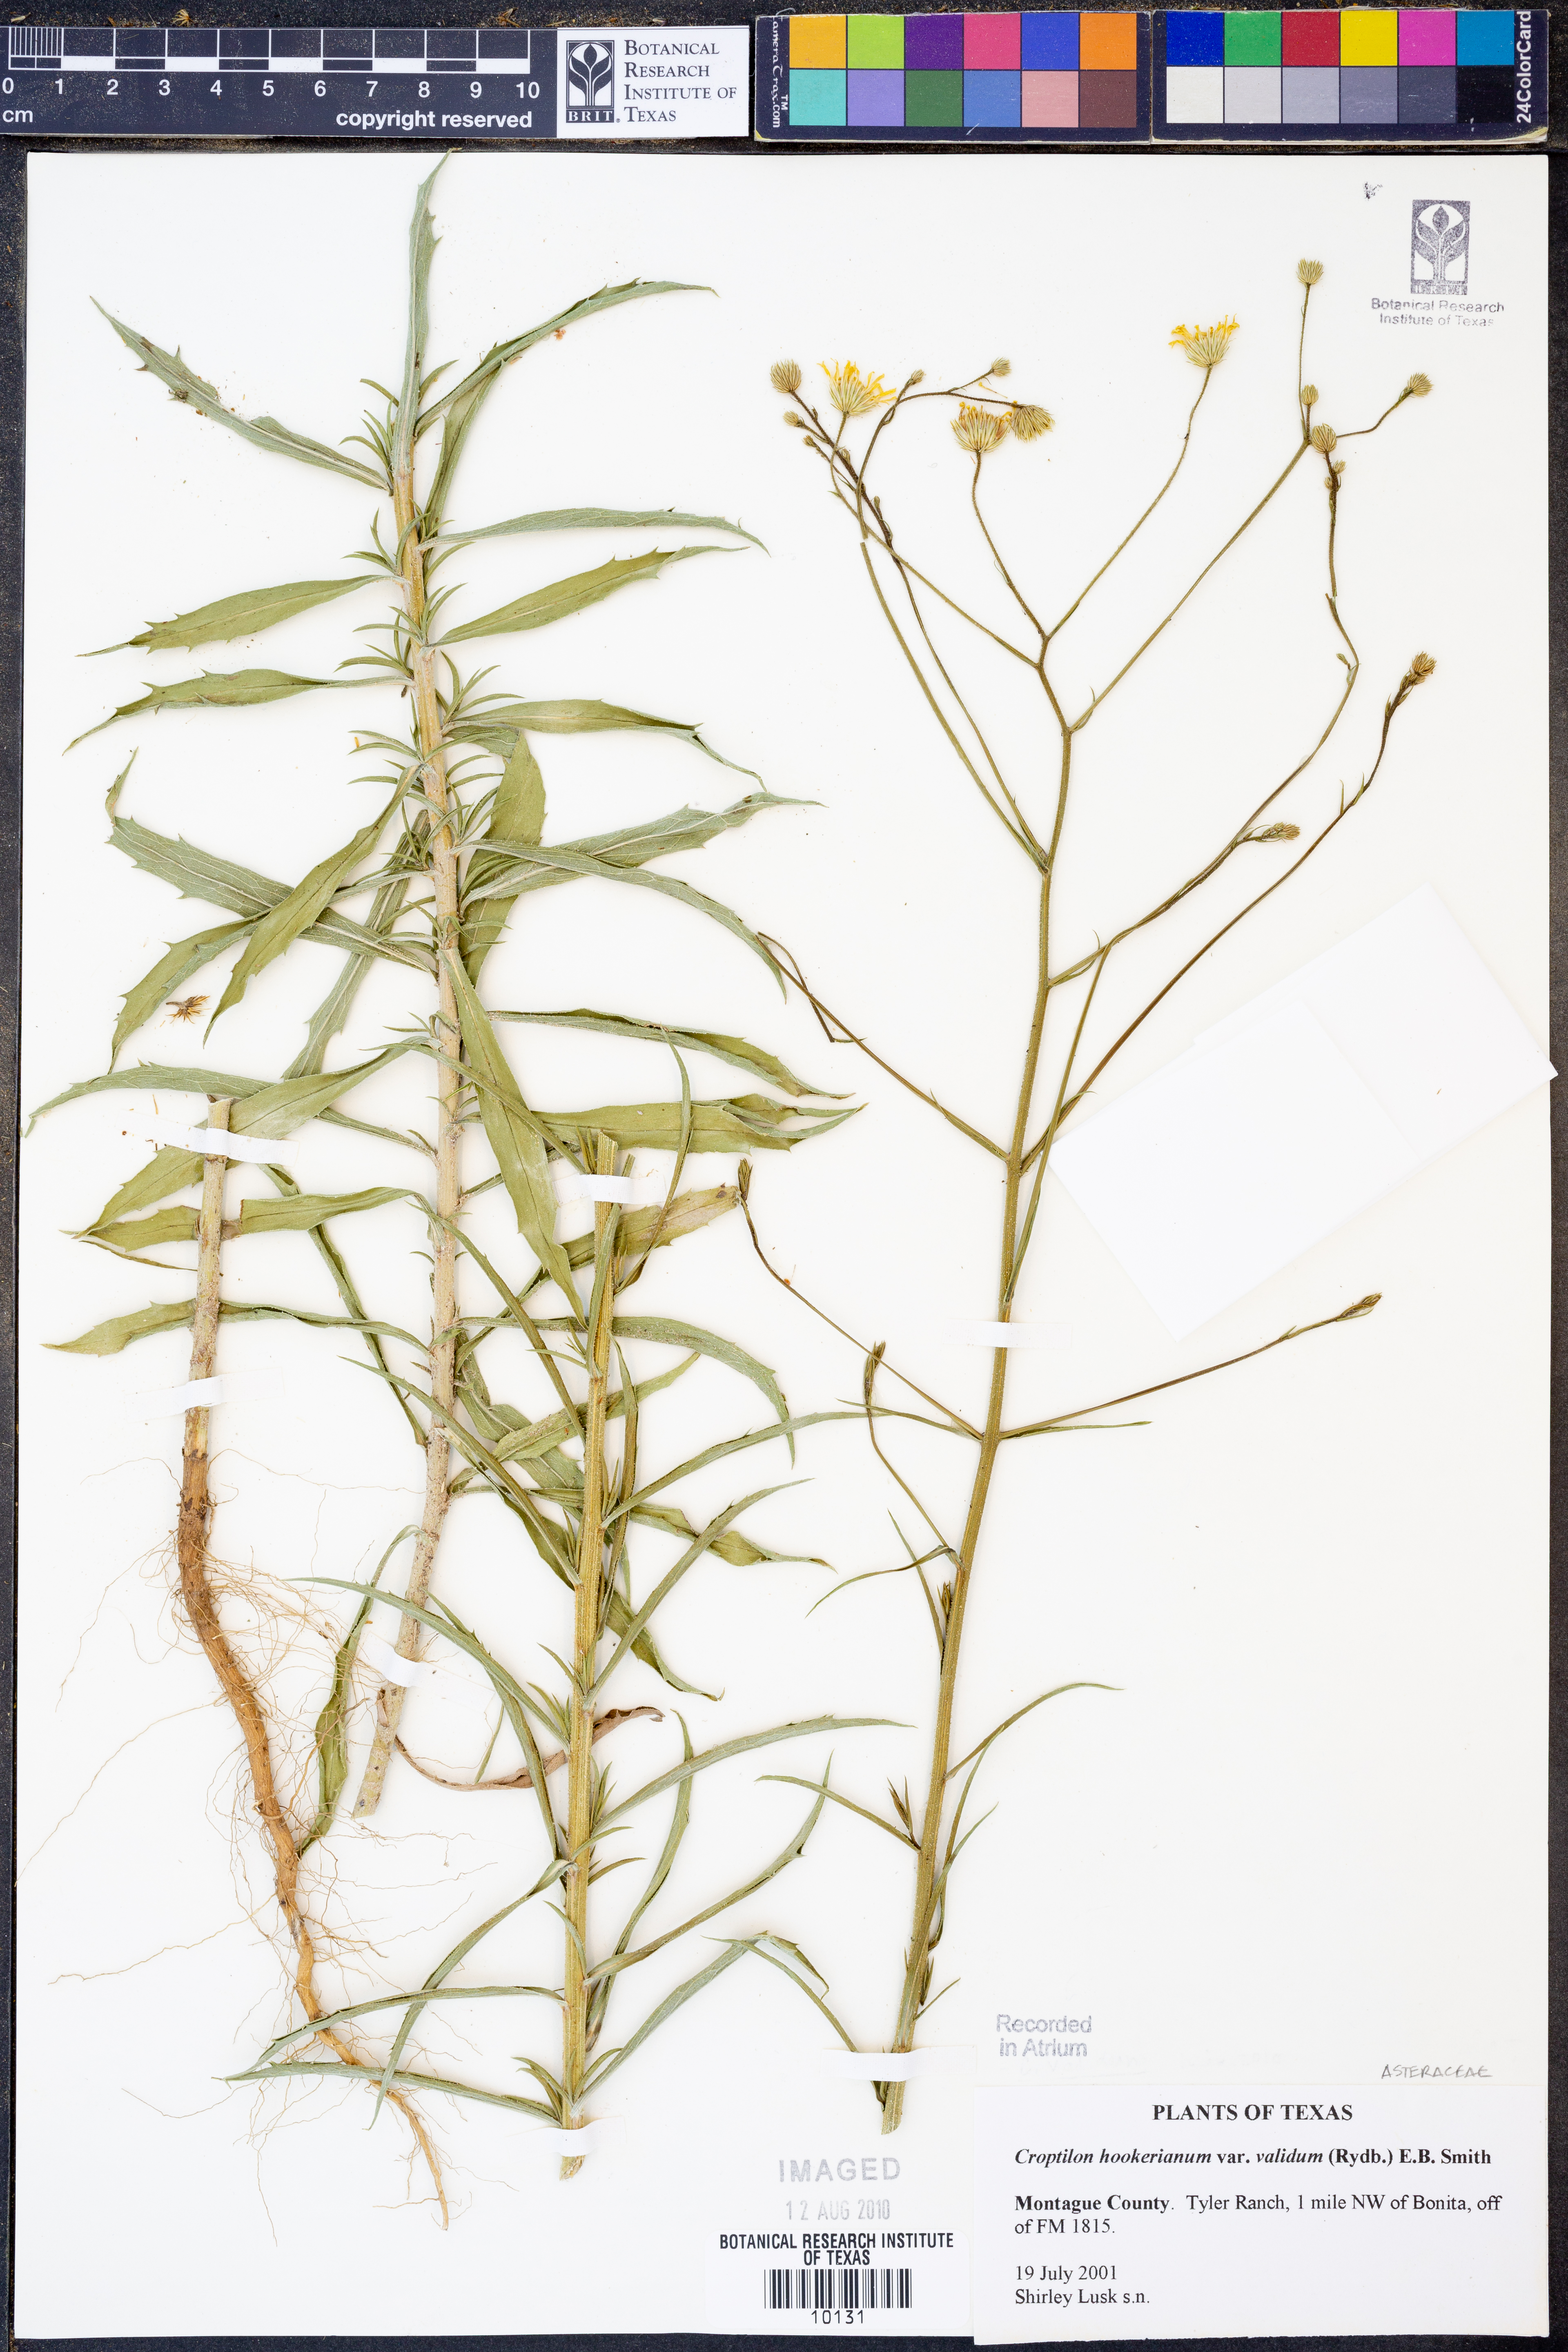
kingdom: Plantae
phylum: Tracheophyta
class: Magnoliopsida
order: Asterales
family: Asteraceae
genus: Croptilon
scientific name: Croptilon hookerianum
